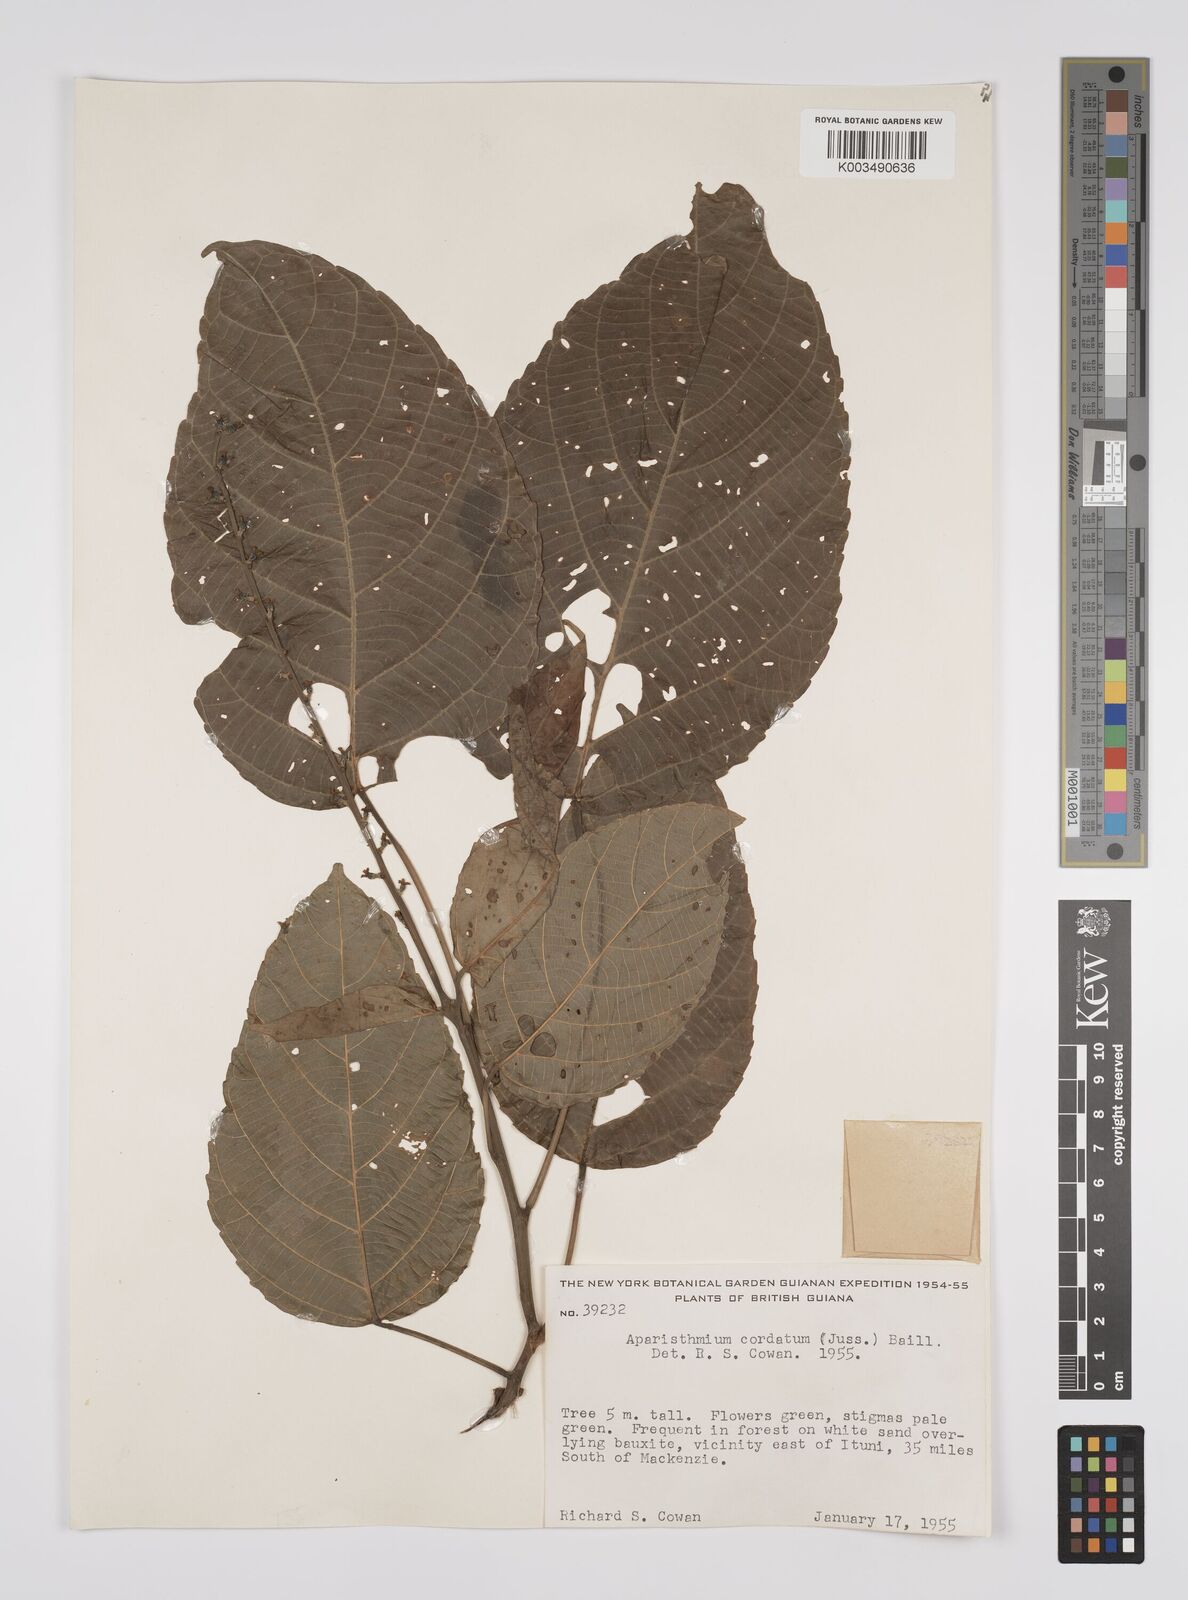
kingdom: Plantae
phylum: Tracheophyta
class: Magnoliopsida
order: Malpighiales
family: Euphorbiaceae
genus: Aparisthmium
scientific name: Aparisthmium cordatum
